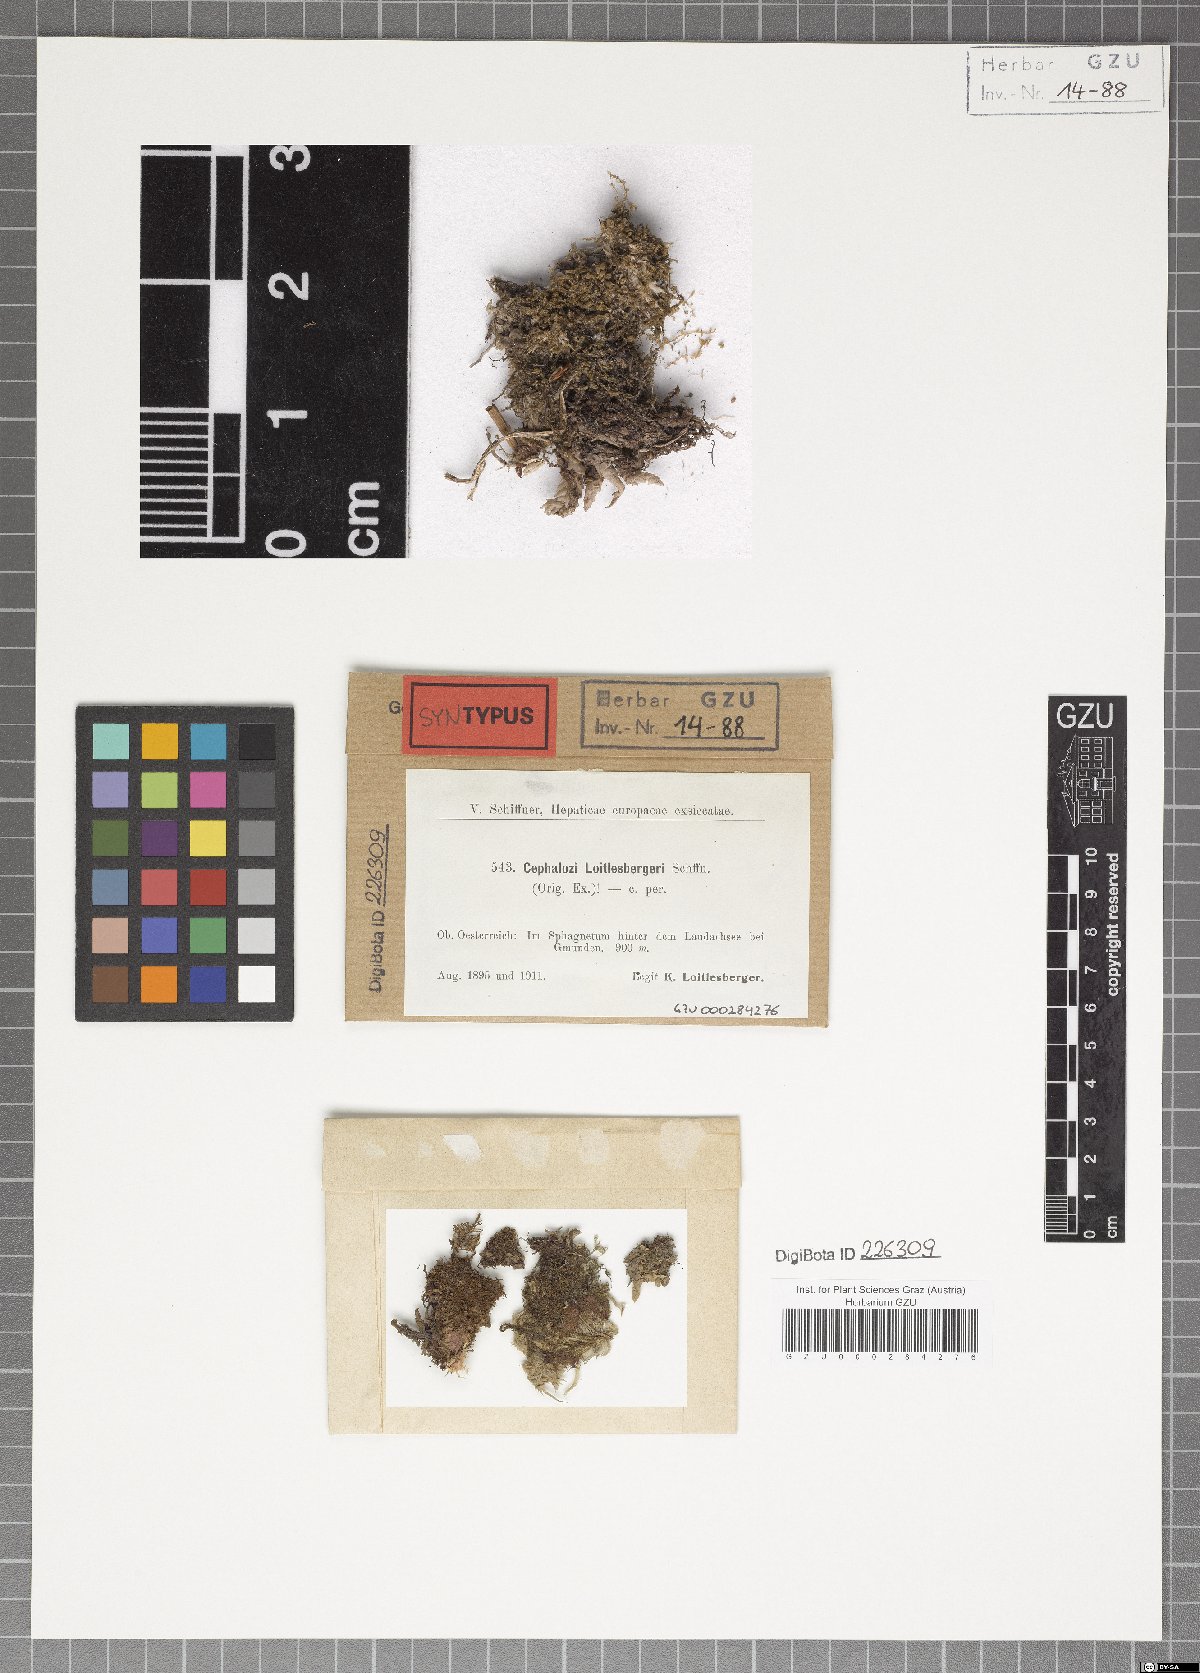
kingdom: Plantae
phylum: Marchantiophyta
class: Jungermanniopsida
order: Jungermanniales
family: Cephaloziaceae
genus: Fuscocephaloziopsis
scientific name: Fuscocephaloziopsis loitlesbergeri
